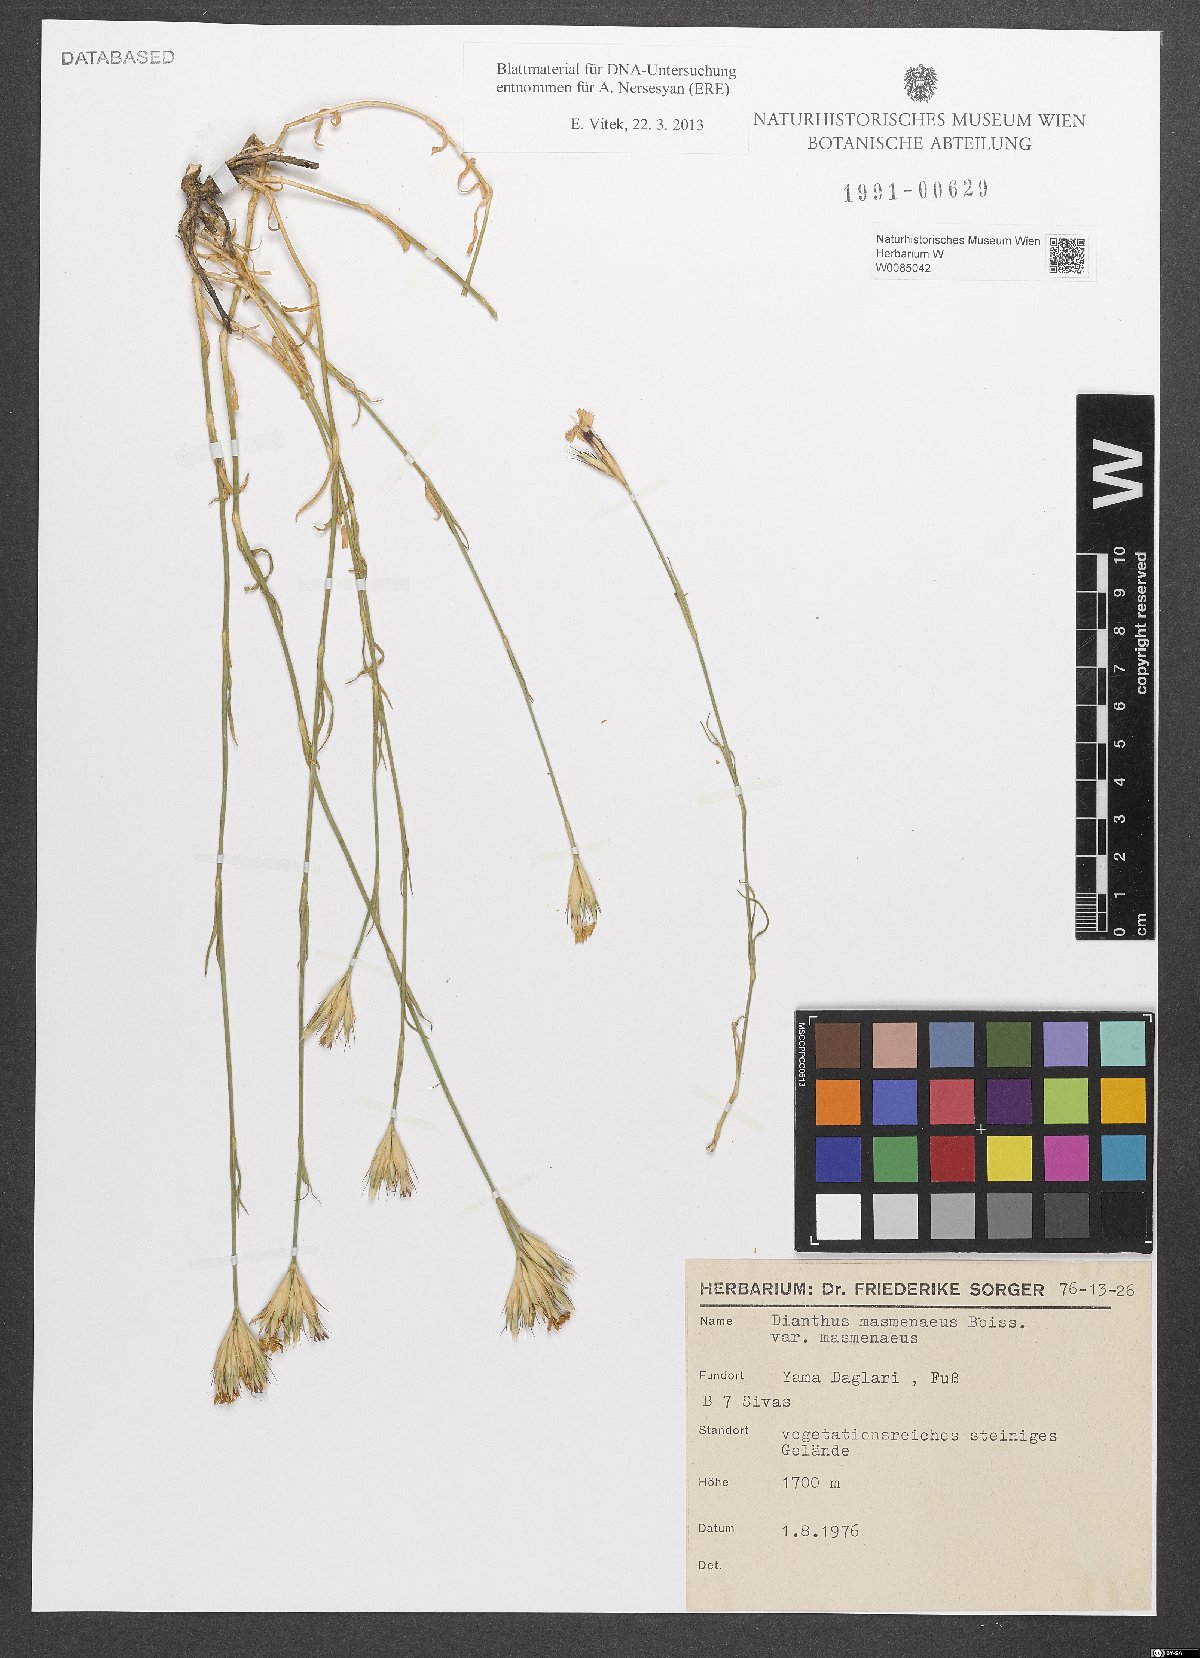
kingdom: Plantae
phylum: Tracheophyta
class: Magnoliopsida
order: Caryophyllales
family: Caryophyllaceae
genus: Dianthus
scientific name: Dianthus masmenaeus
